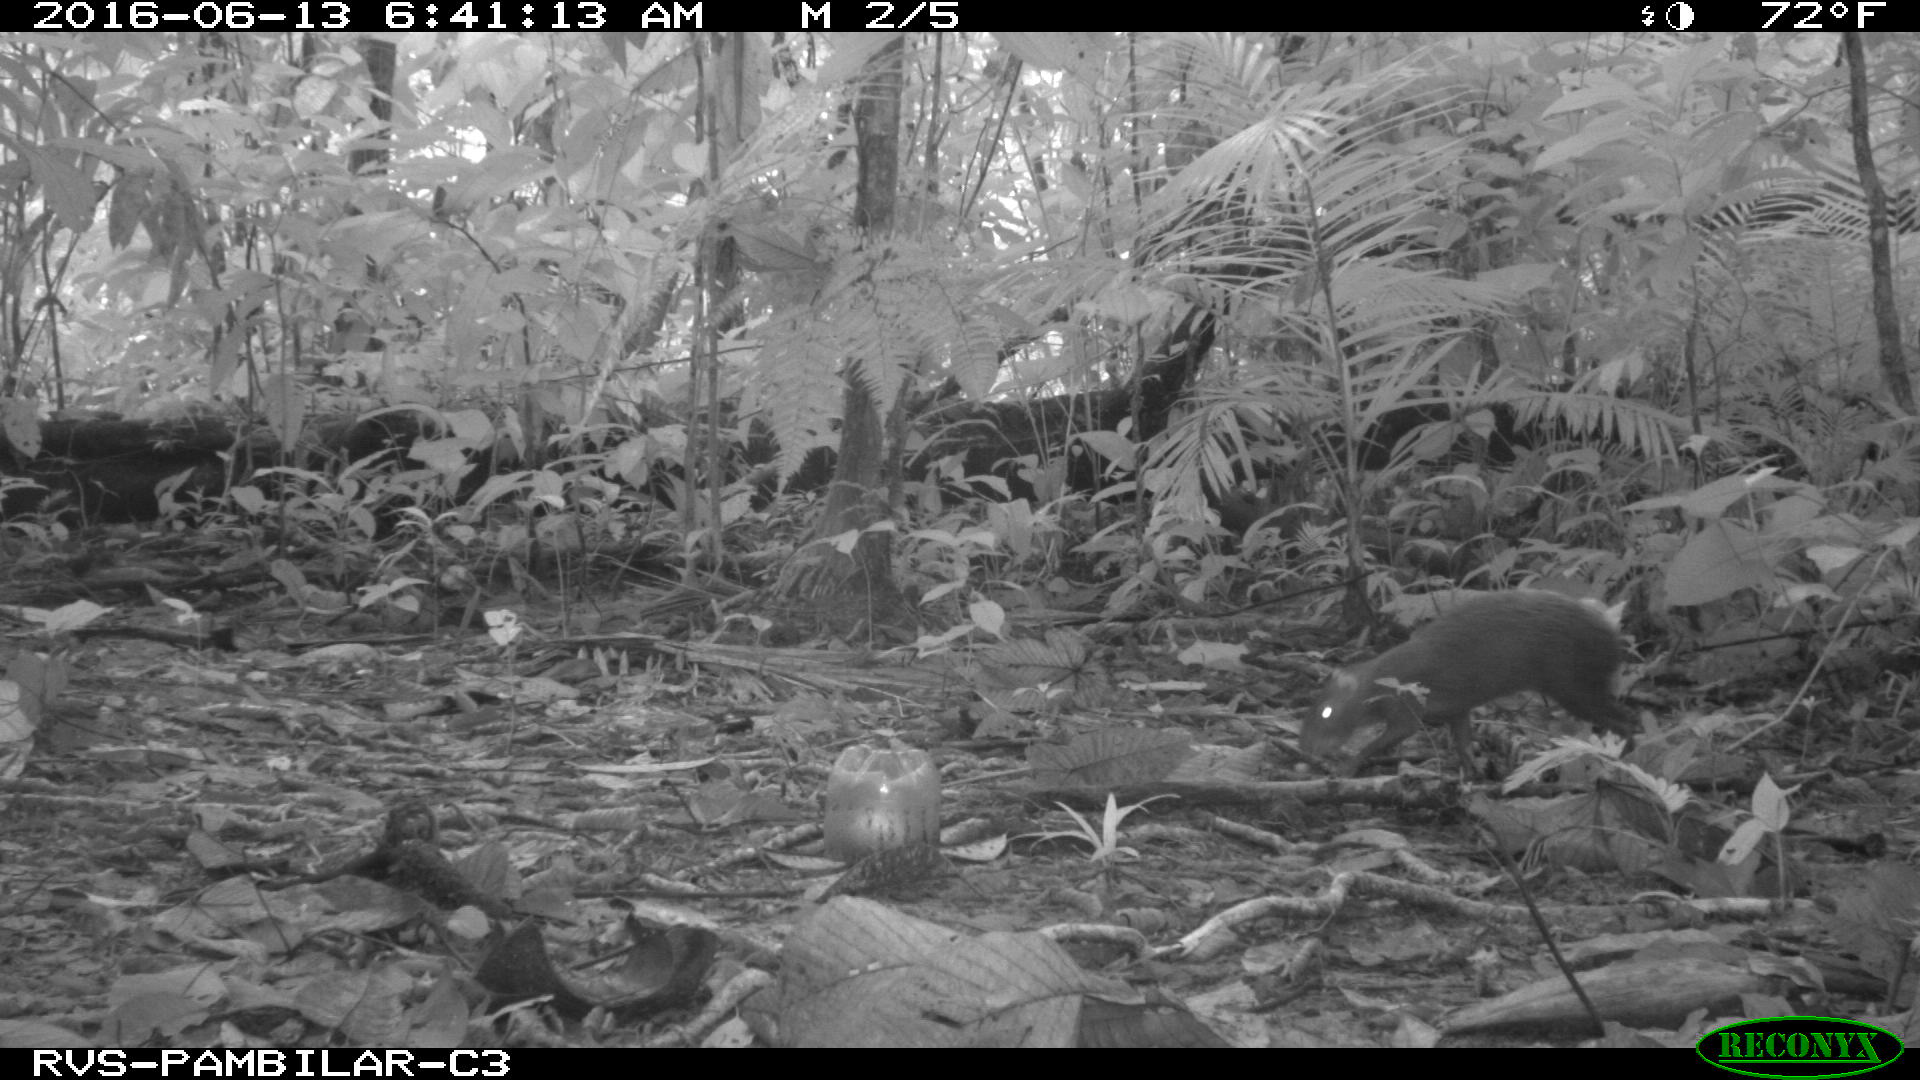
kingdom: Animalia
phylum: Chordata
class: Mammalia
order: Rodentia
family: Dasyproctidae
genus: Dasyprocta
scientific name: Dasyprocta punctata
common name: Central american agouti
